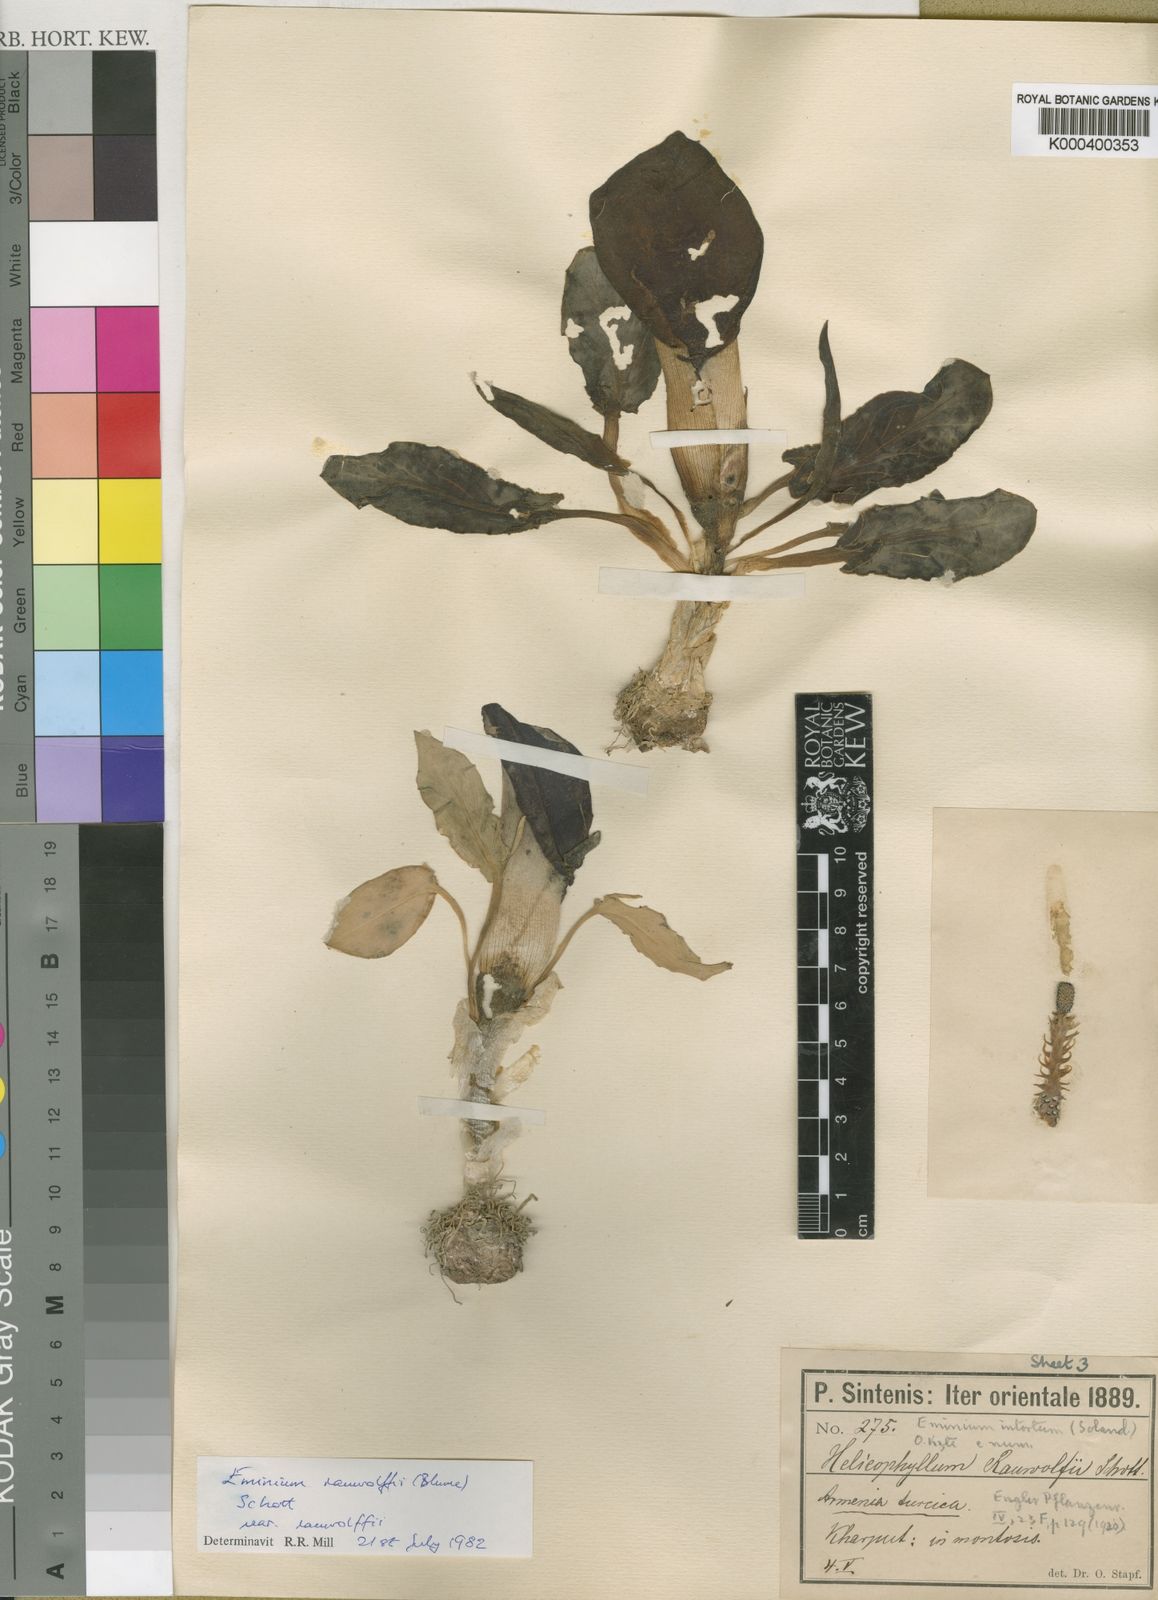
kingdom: Plantae
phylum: Tracheophyta
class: Liliopsida
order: Alismatales
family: Araceae
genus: Eminium
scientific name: Eminium rauwolffii
